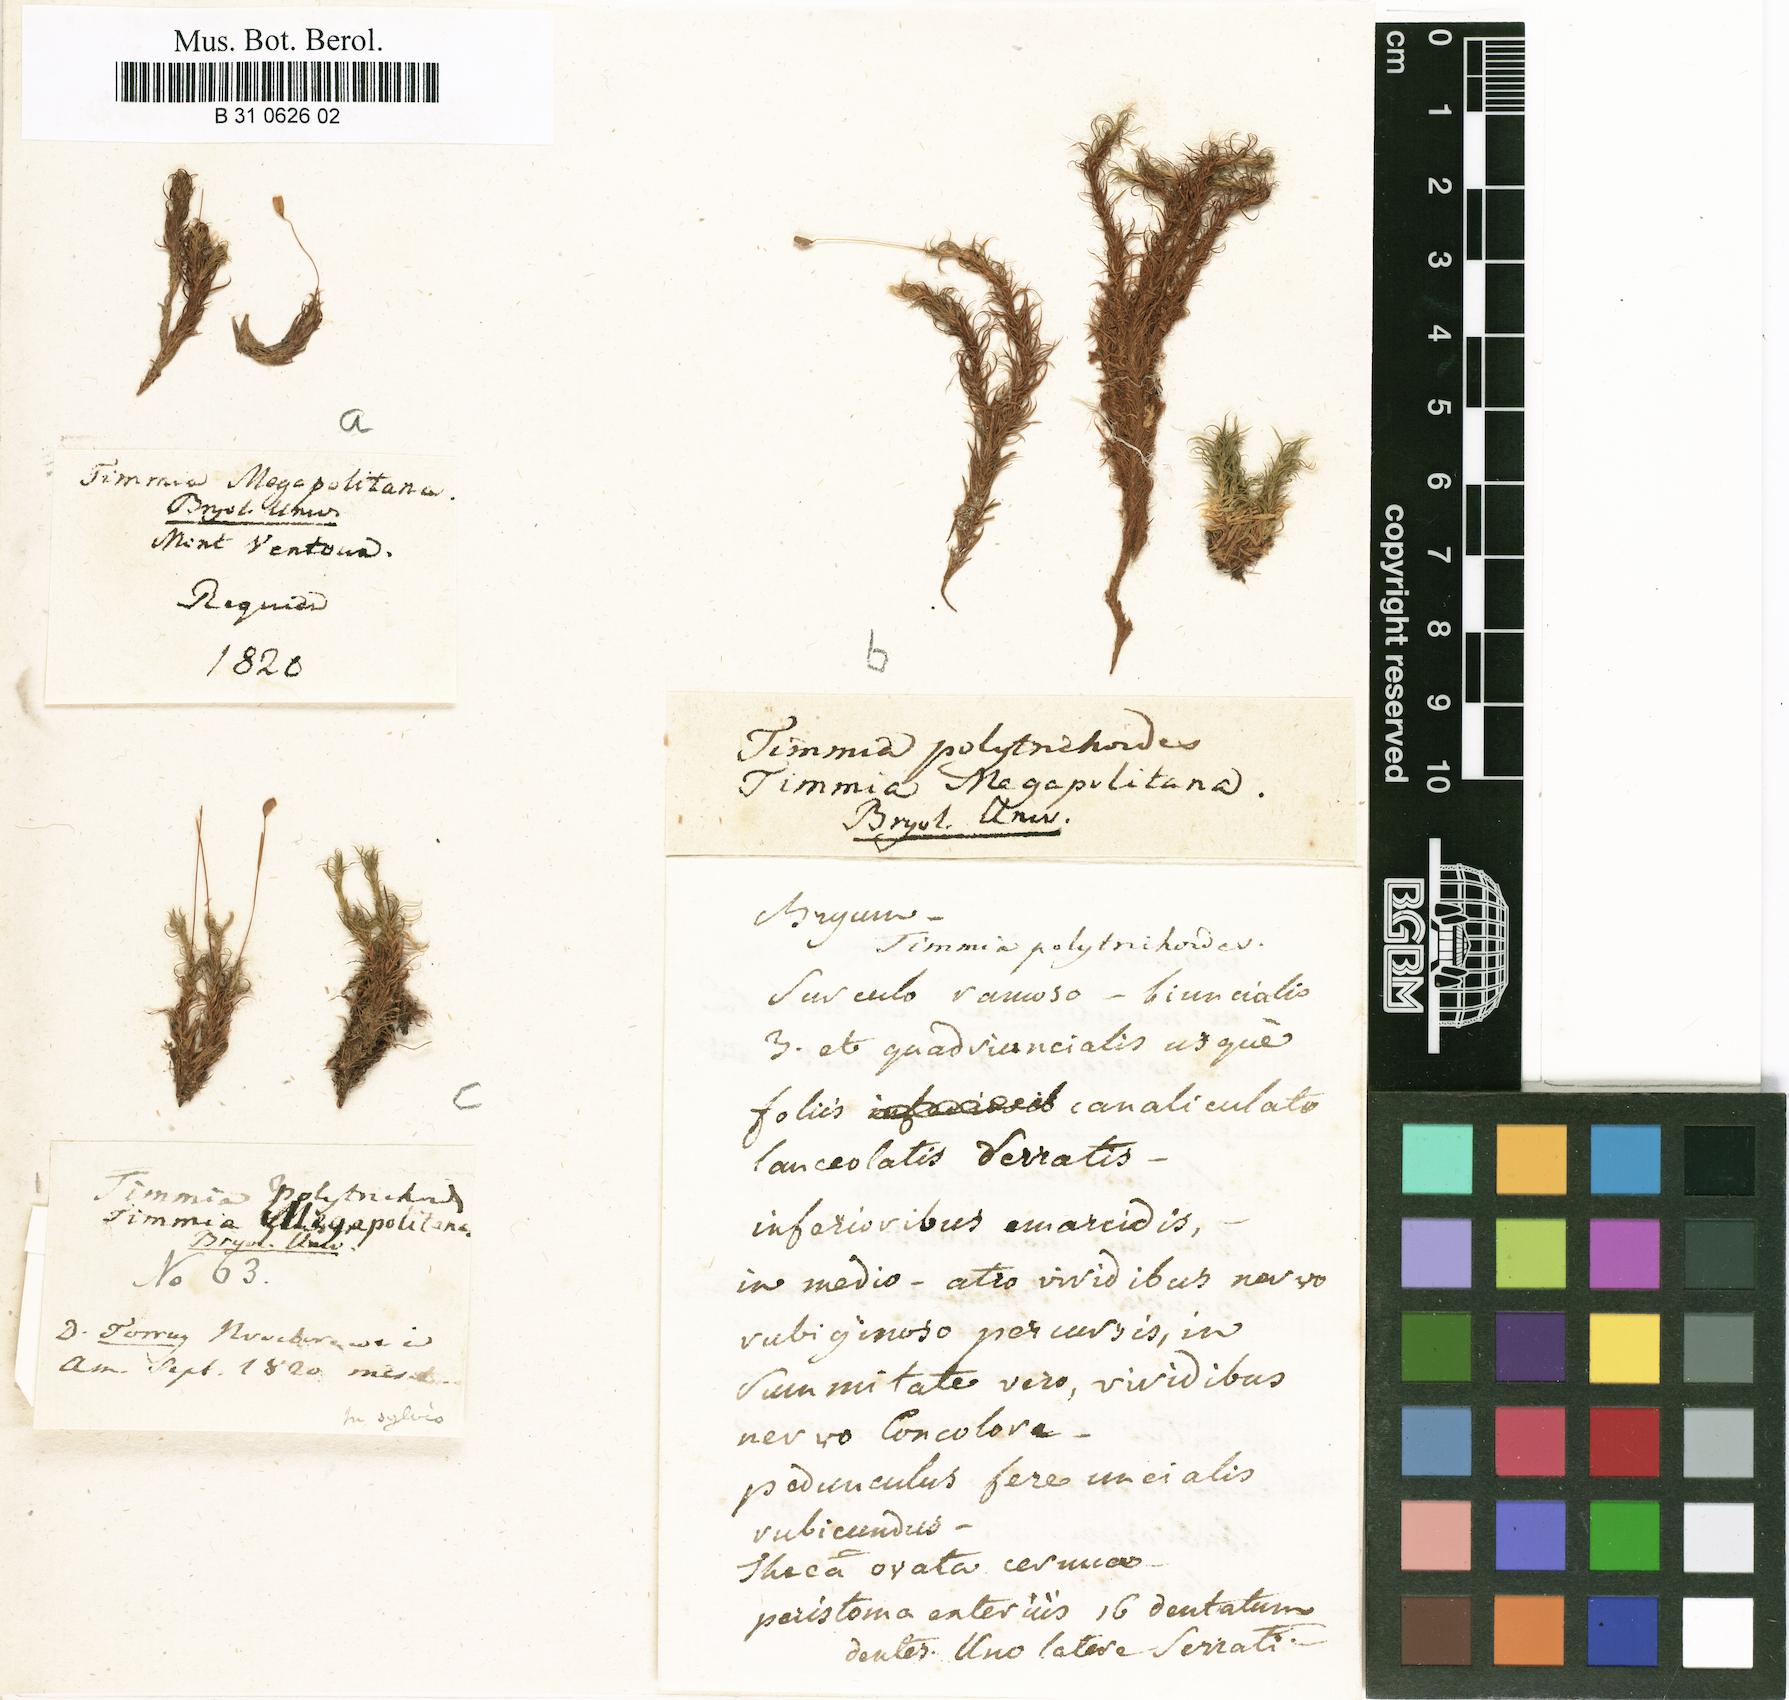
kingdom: Plantae
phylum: Bryophyta
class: Bryopsida
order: Timmiales
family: Timmiaceae
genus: Timmia
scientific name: Timmia megapolitana
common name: Warrior moss
